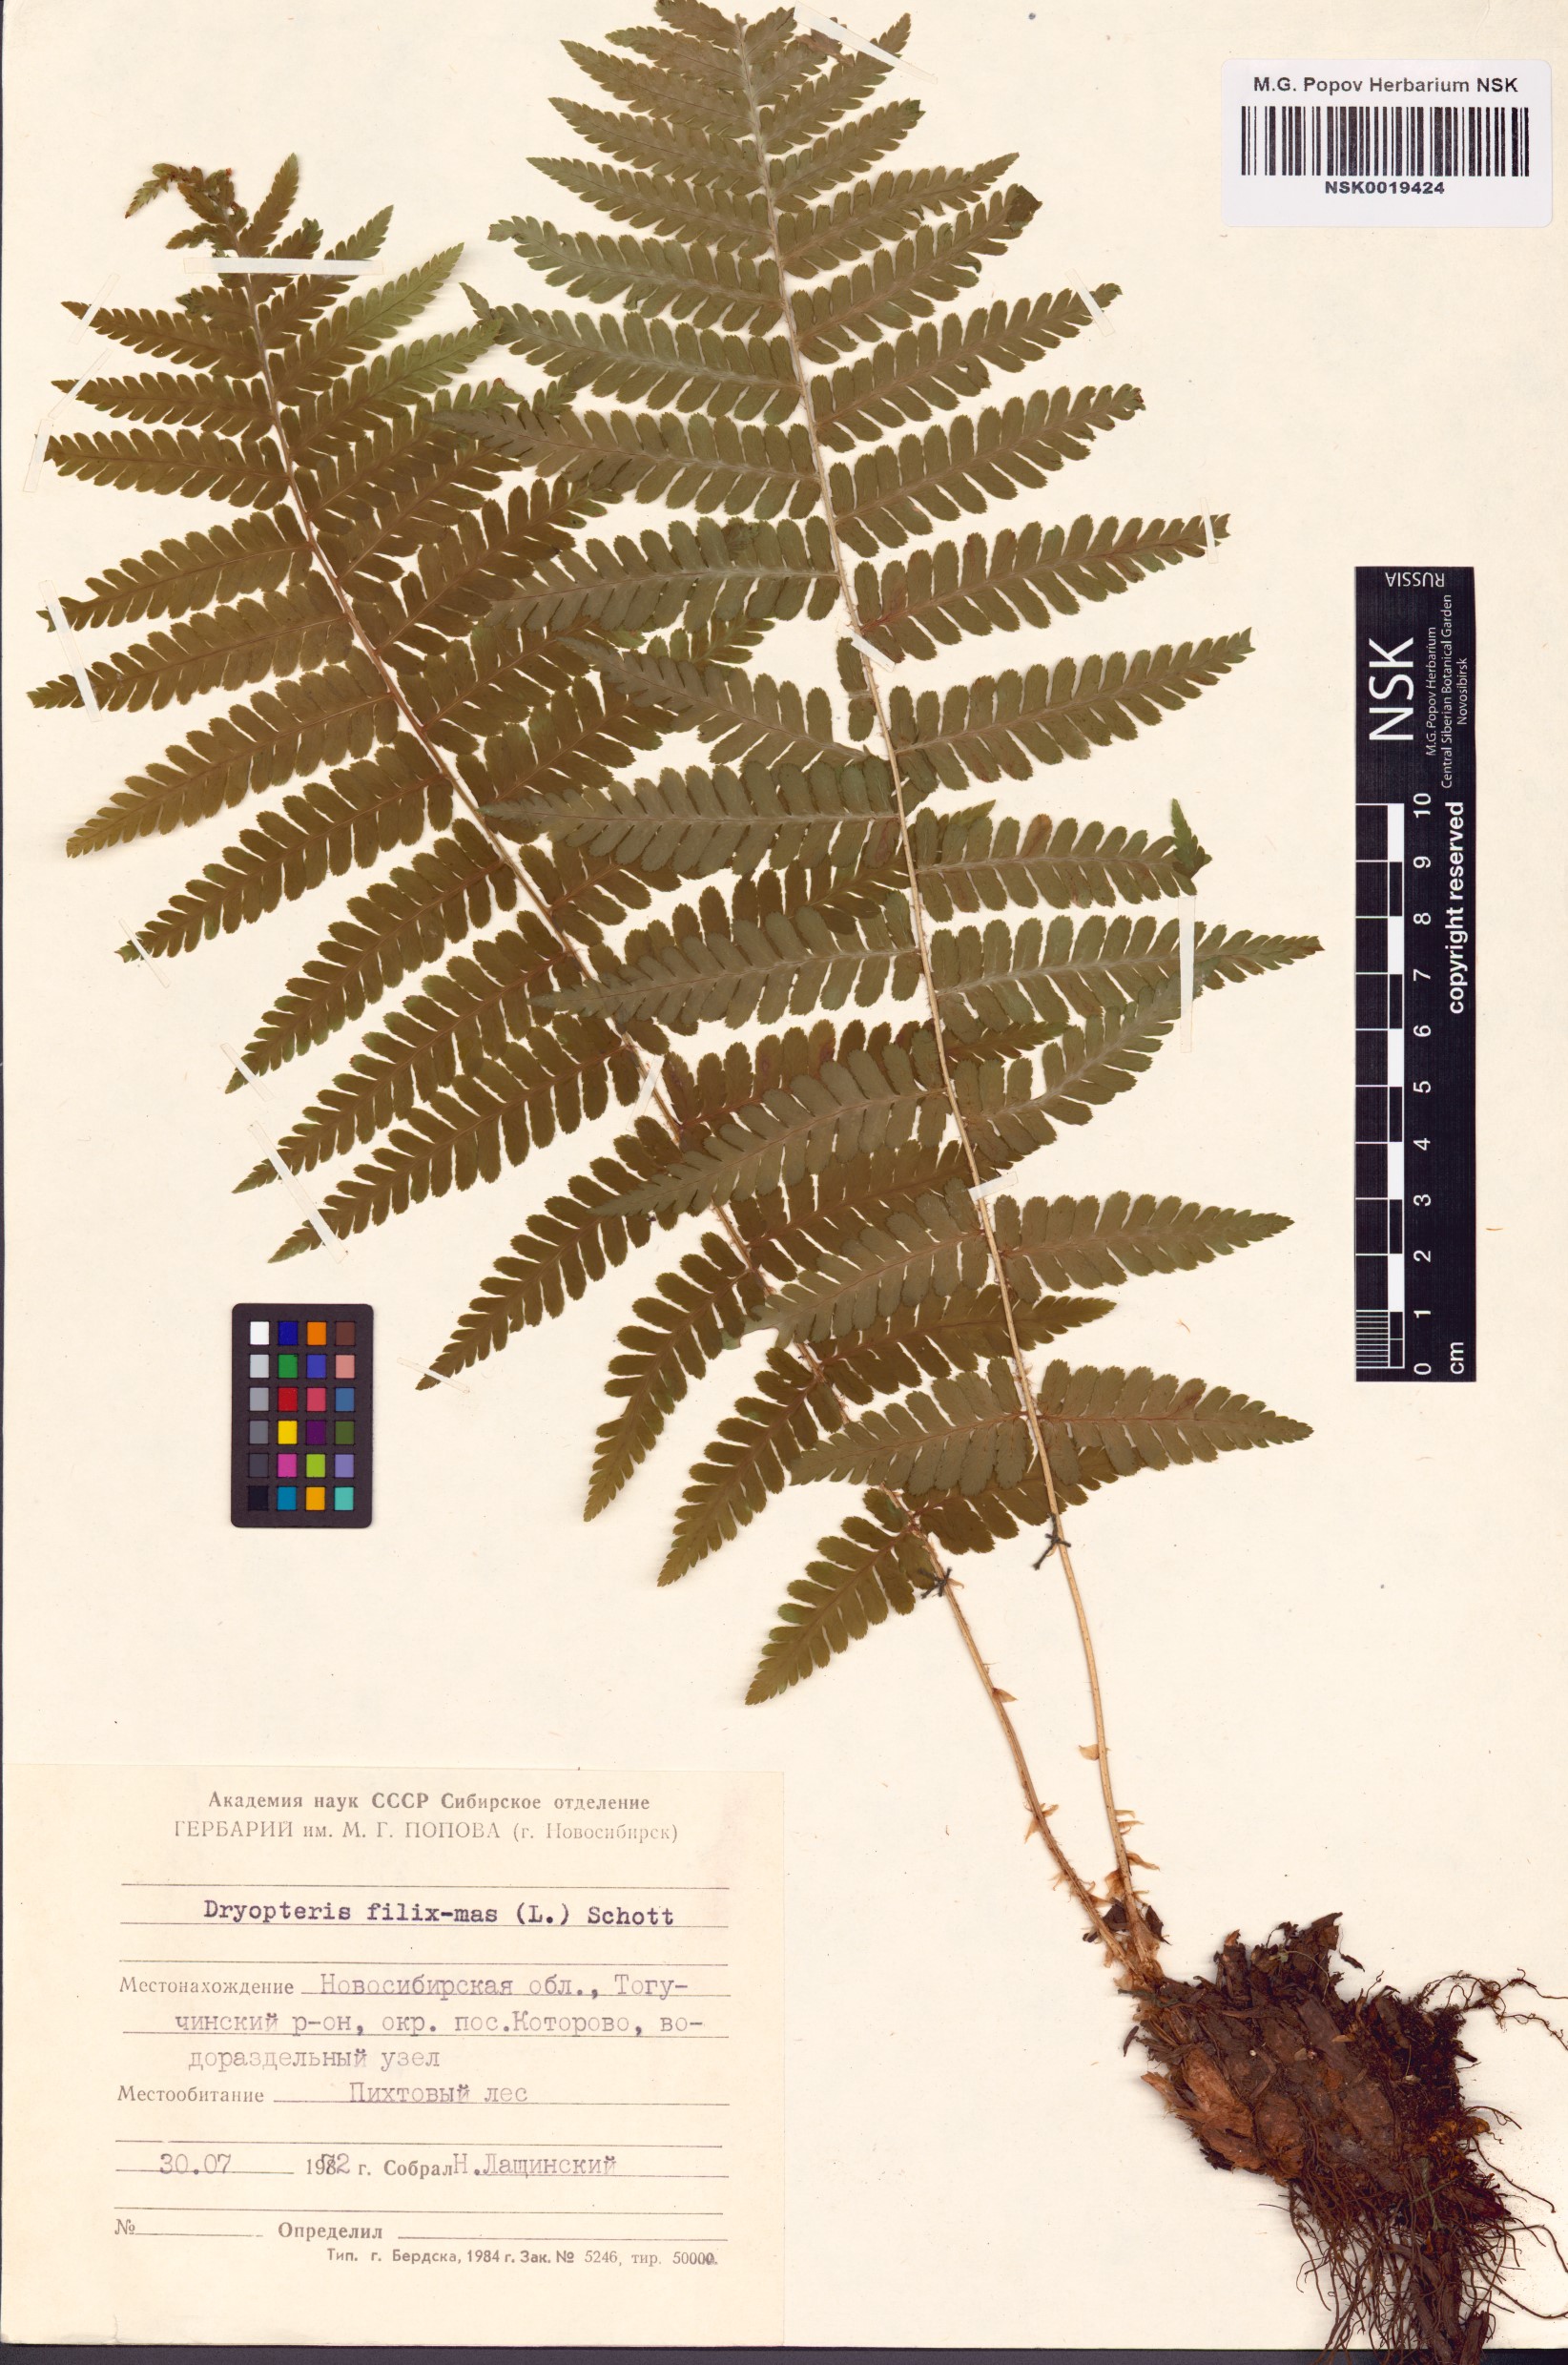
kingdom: Plantae
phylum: Tracheophyta
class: Polypodiopsida
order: Polypodiales
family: Dryopteridaceae
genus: Dryopteris
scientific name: Dryopteris filix-mas
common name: Male fern
